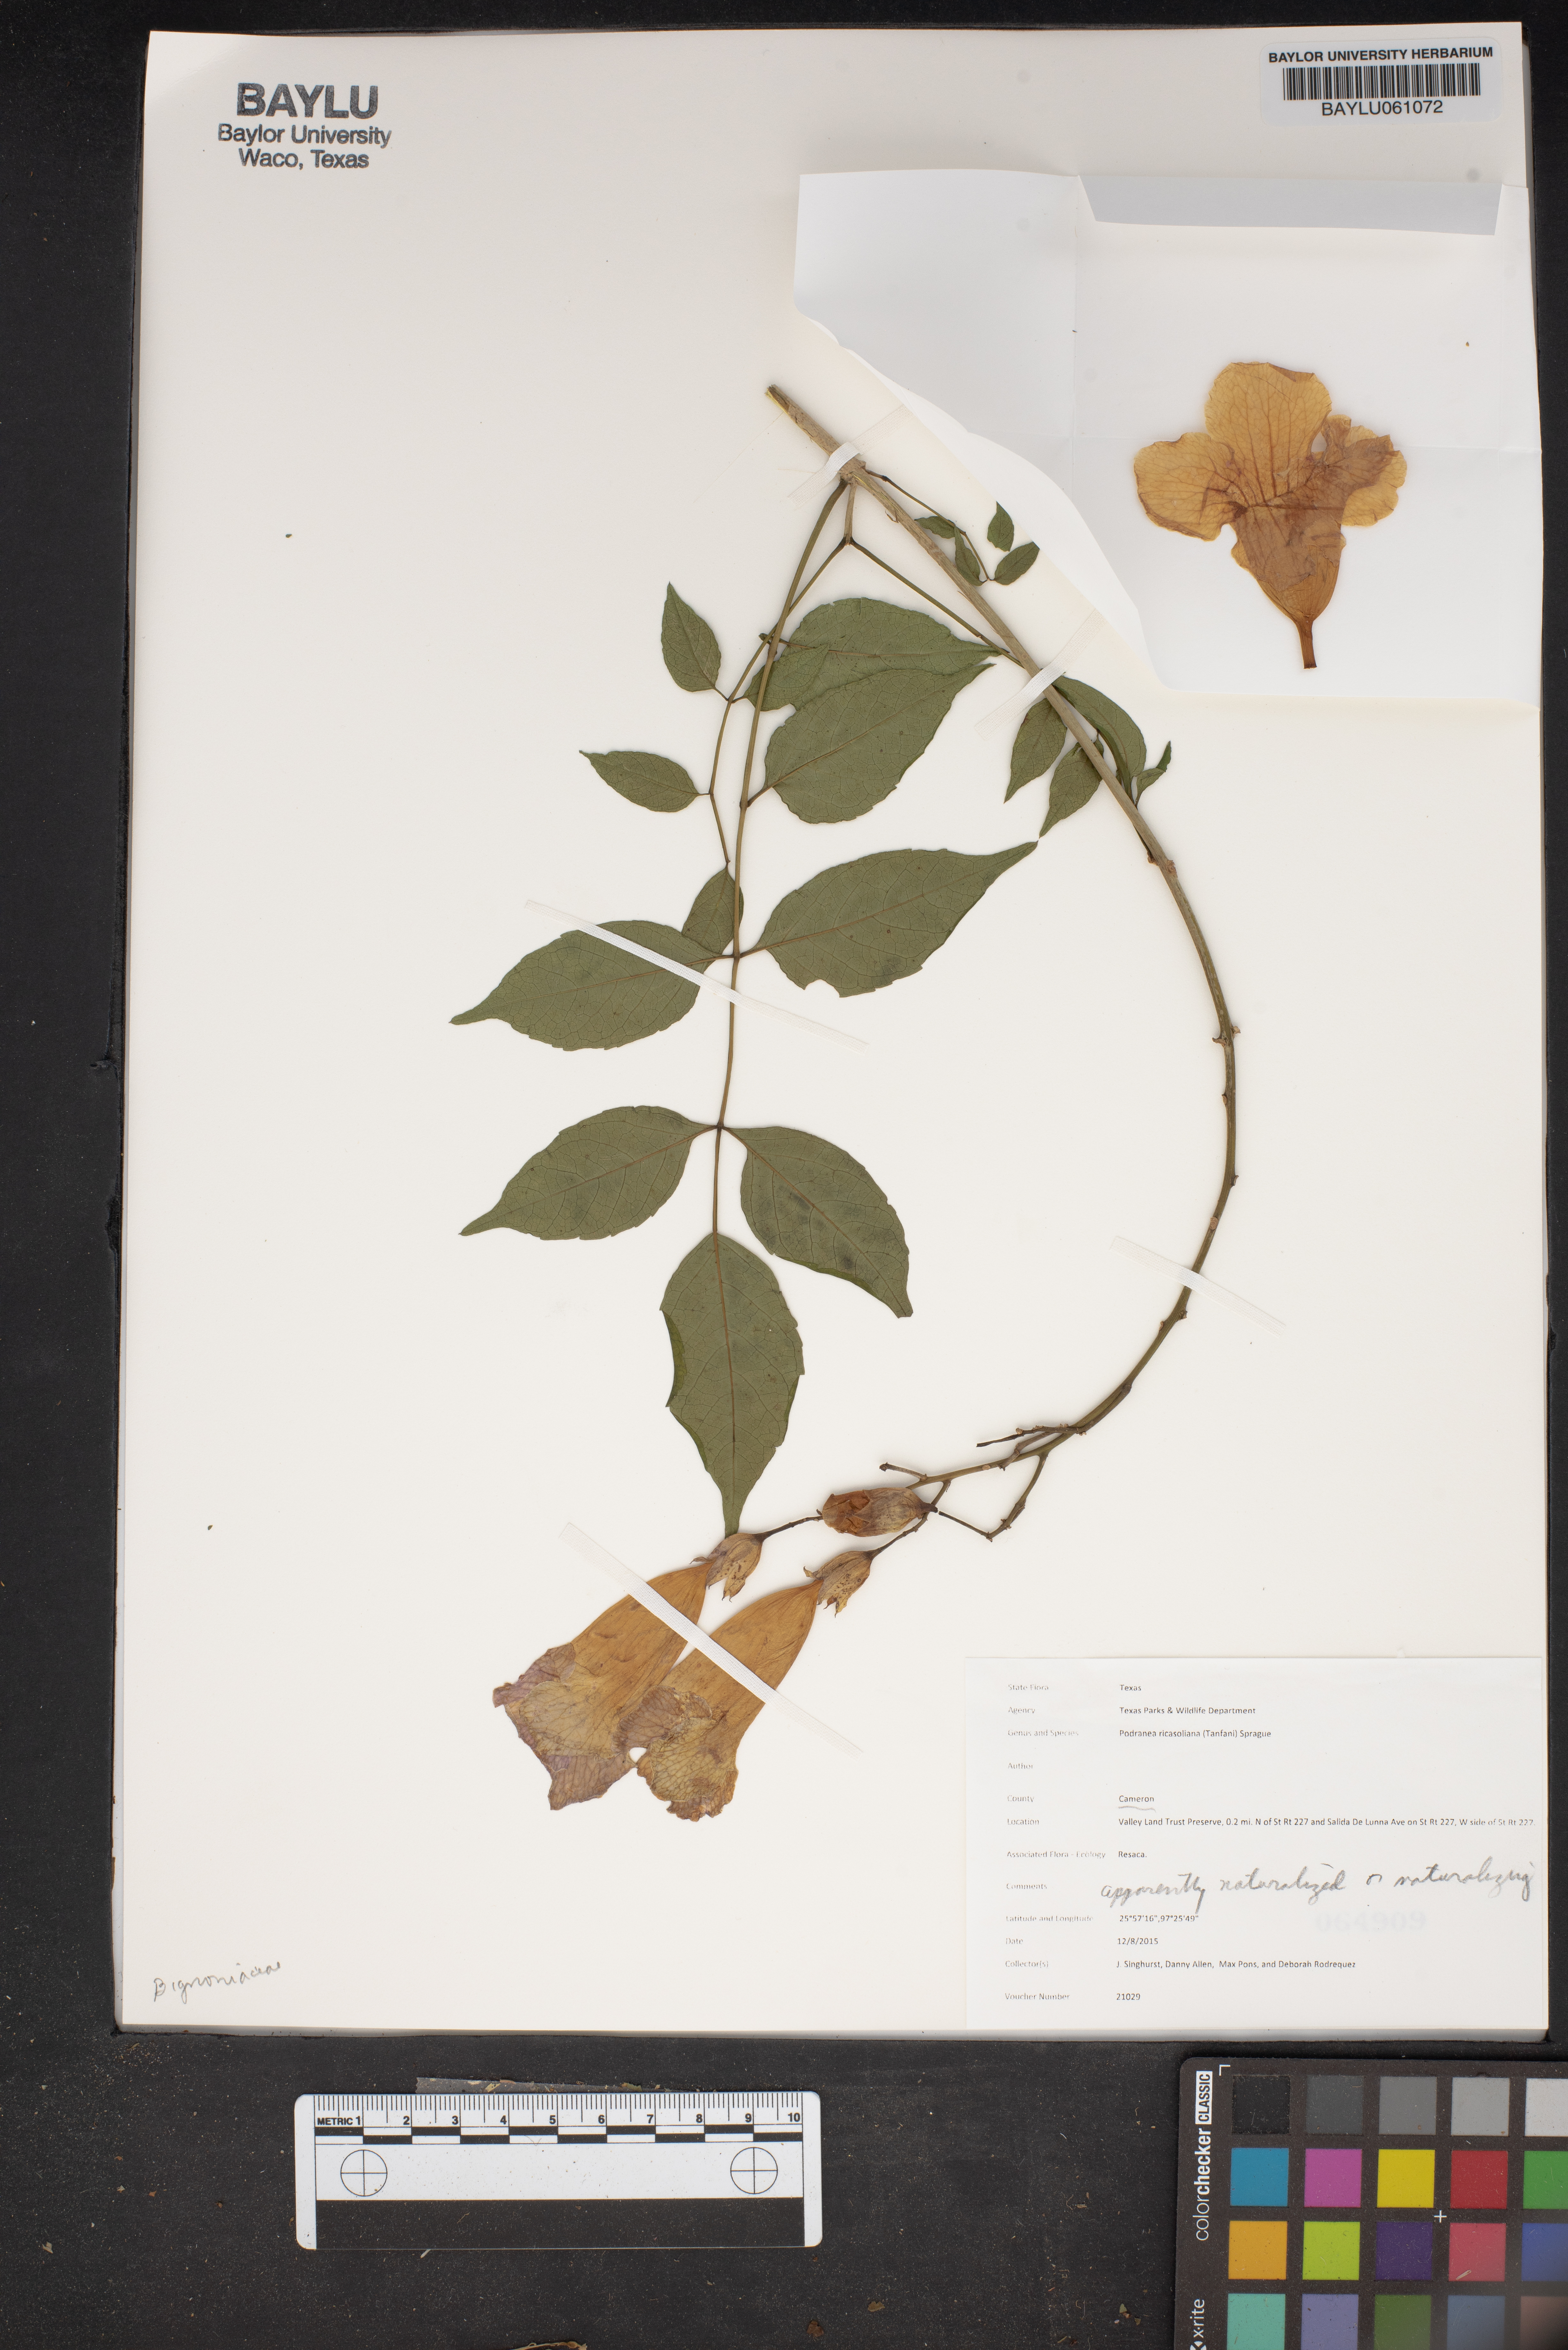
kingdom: Plantae
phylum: Tracheophyta
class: Magnoliopsida
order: Lamiales
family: Bignoniaceae
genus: Podranea
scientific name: Podranea ricasoliana
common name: Zimbabwe creeper
